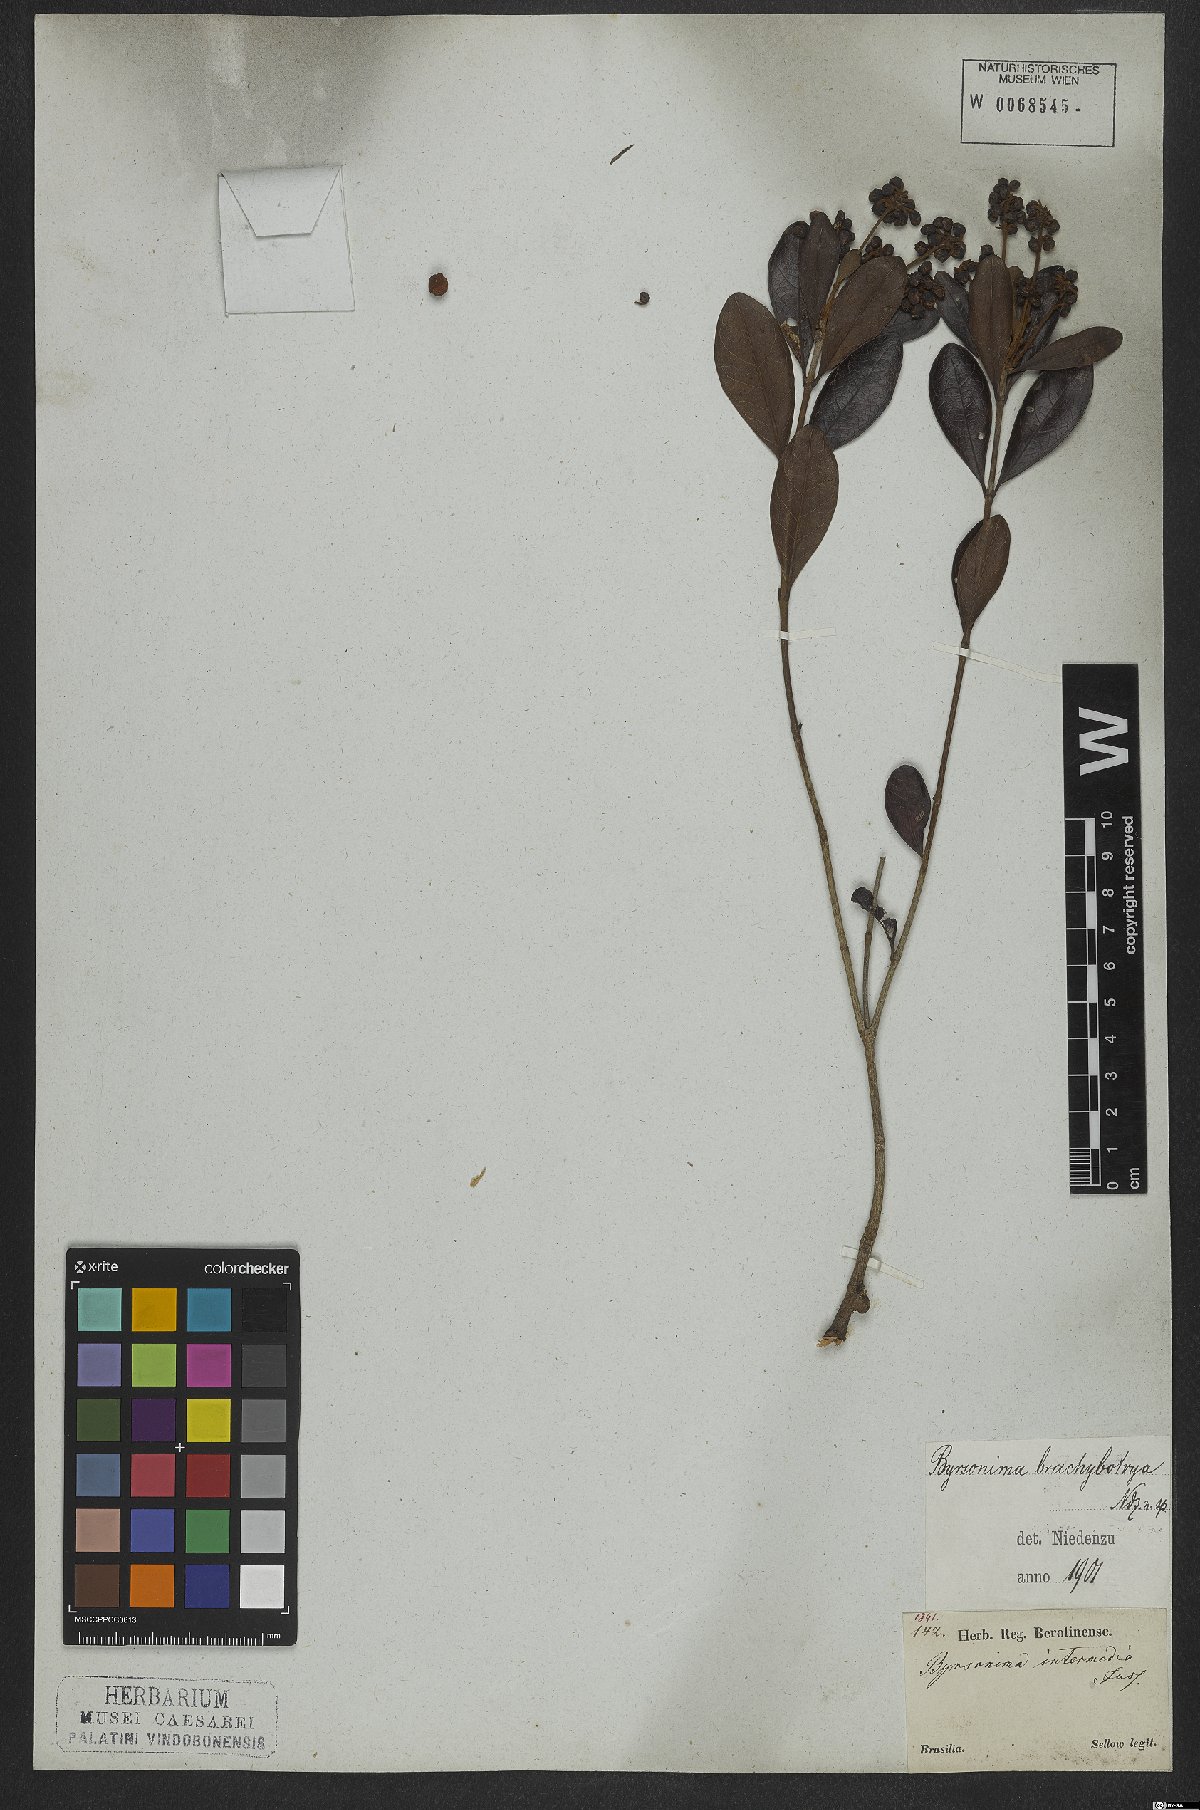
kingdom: Plantae
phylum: Tracheophyta
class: Magnoliopsida
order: Malpighiales
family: Malpighiaceae
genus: Byrsonima
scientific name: Byrsonima brachybotrya
